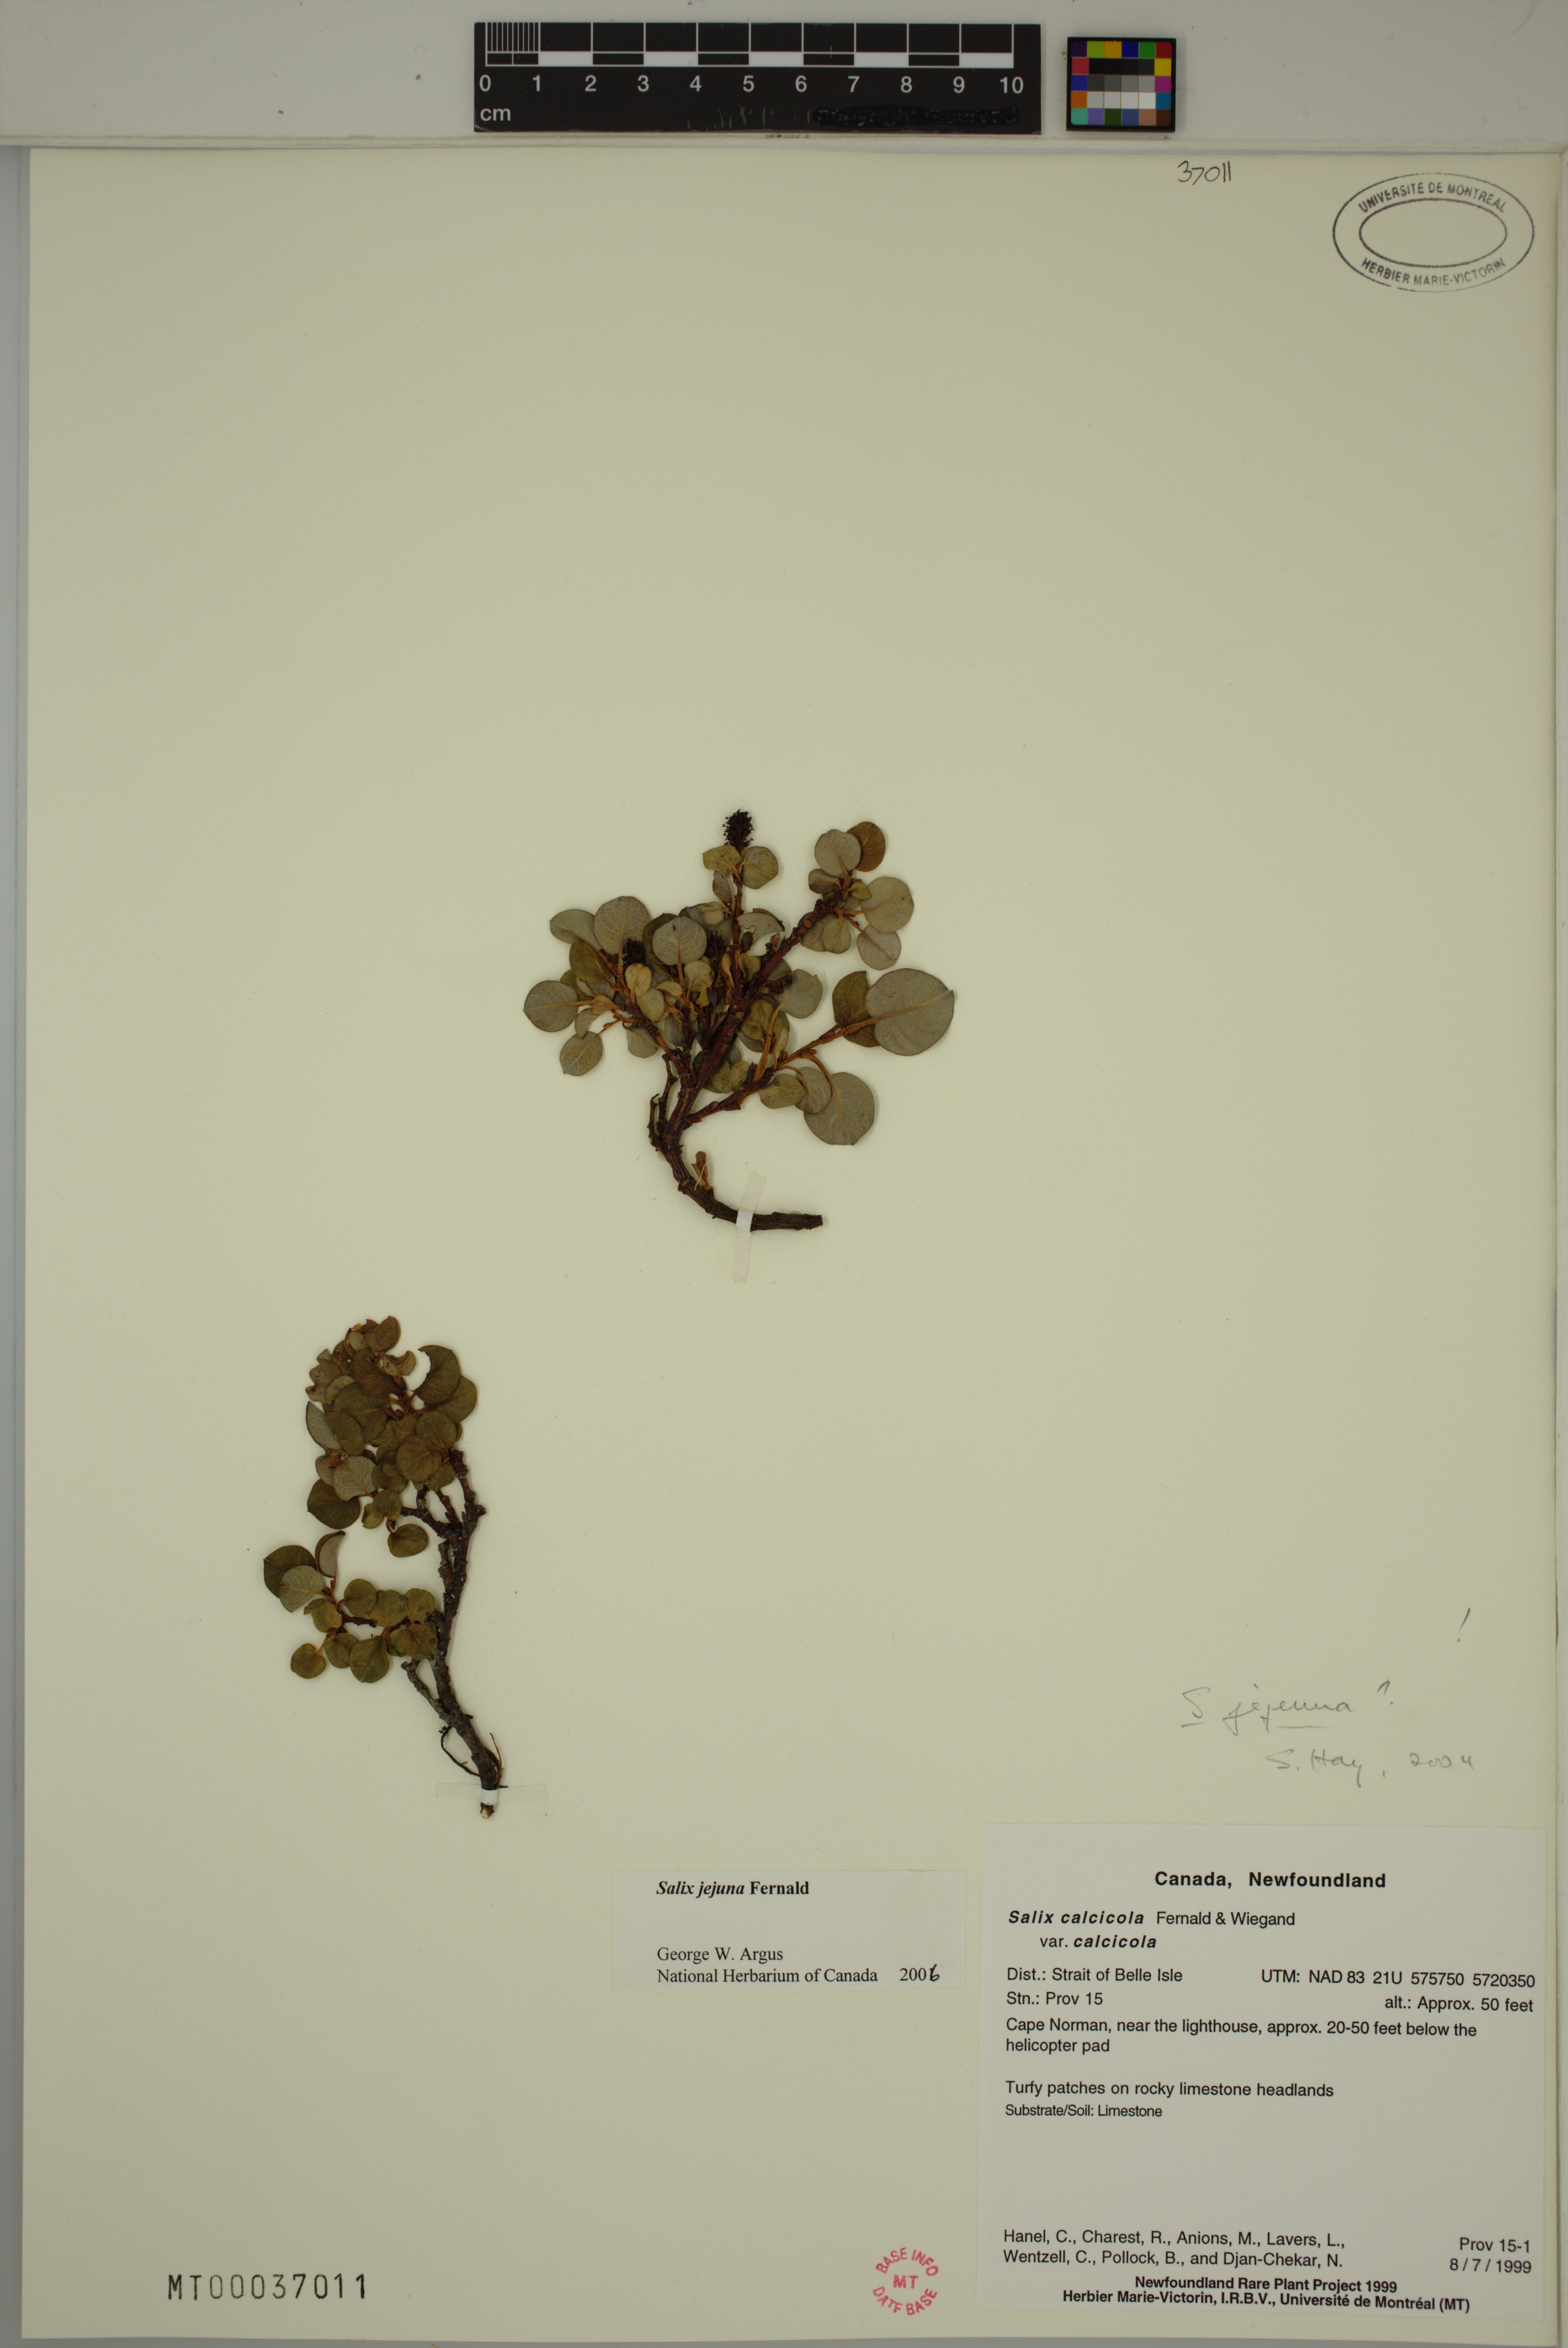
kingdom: Plantae
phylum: Tracheophyta
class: Magnoliopsida
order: Malpighiales
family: Salicaceae
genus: Salix
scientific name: Salix jejuna
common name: Belle isle dwarf willow
